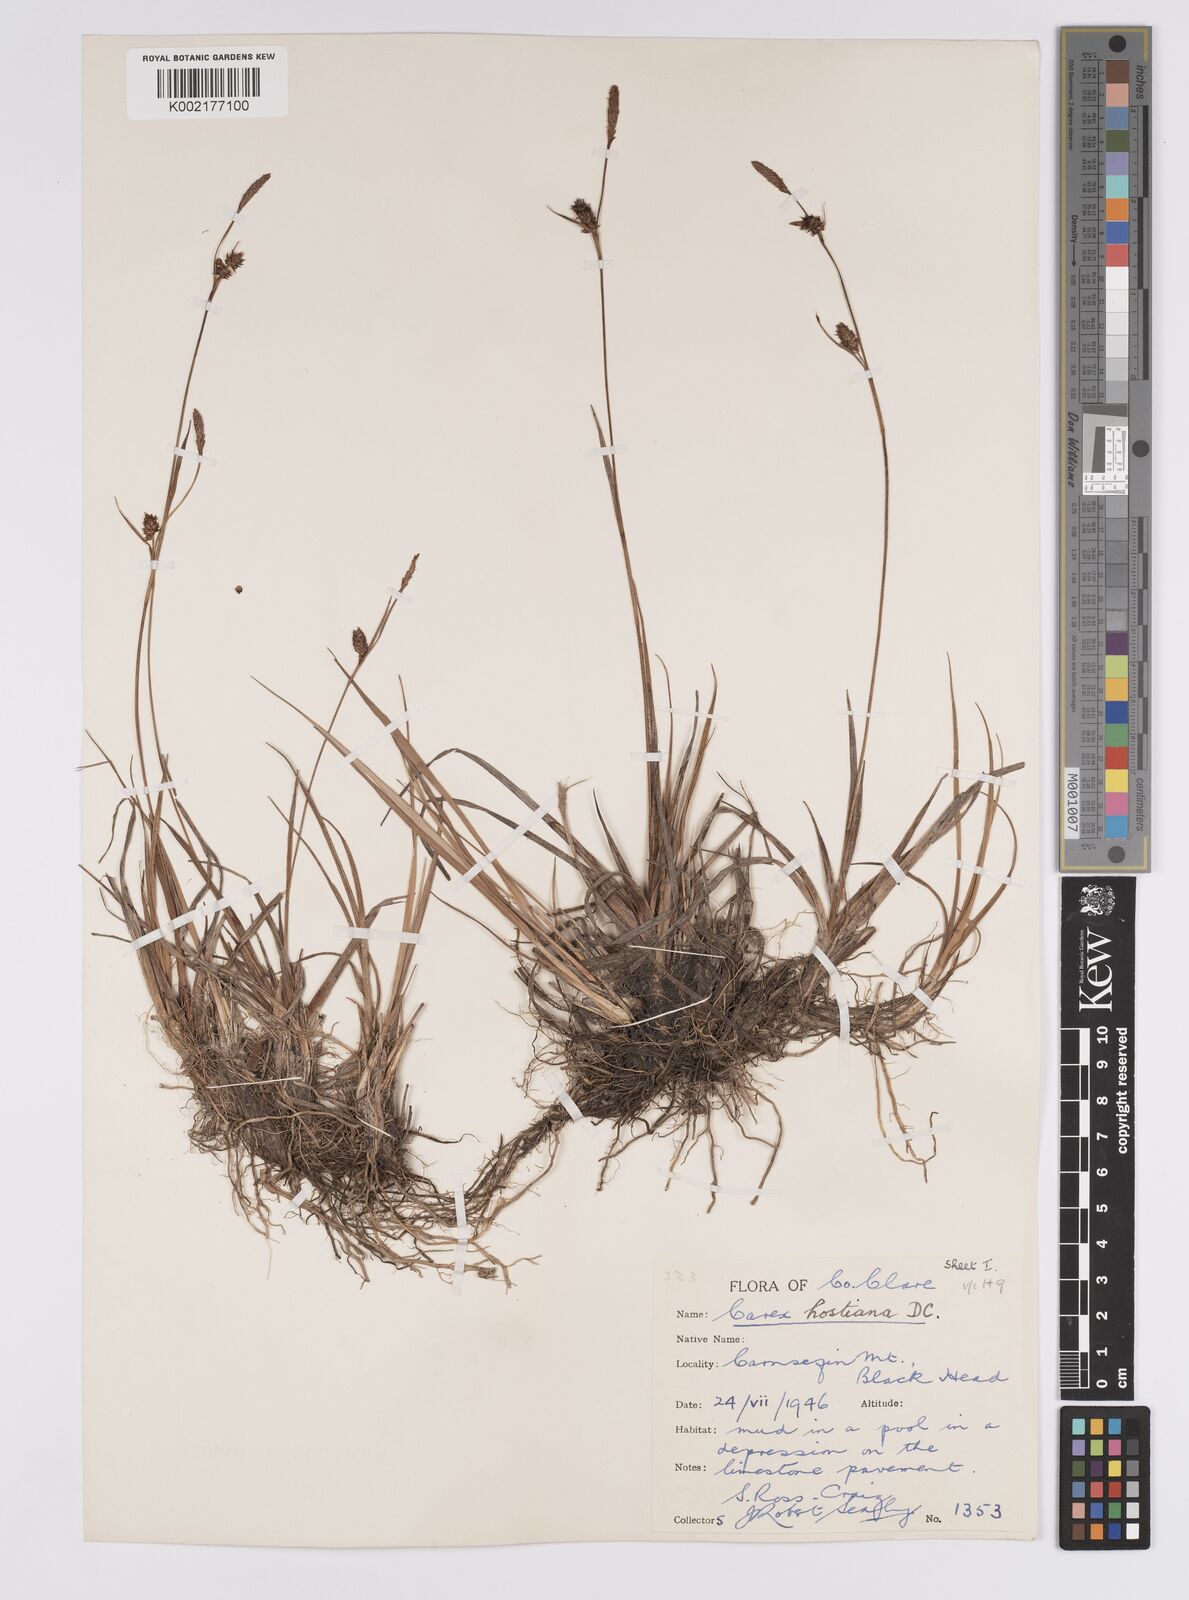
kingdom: Plantae
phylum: Tracheophyta
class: Liliopsida
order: Poales
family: Cyperaceae
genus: Carex
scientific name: Carex hostiana
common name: Tawny sedge
